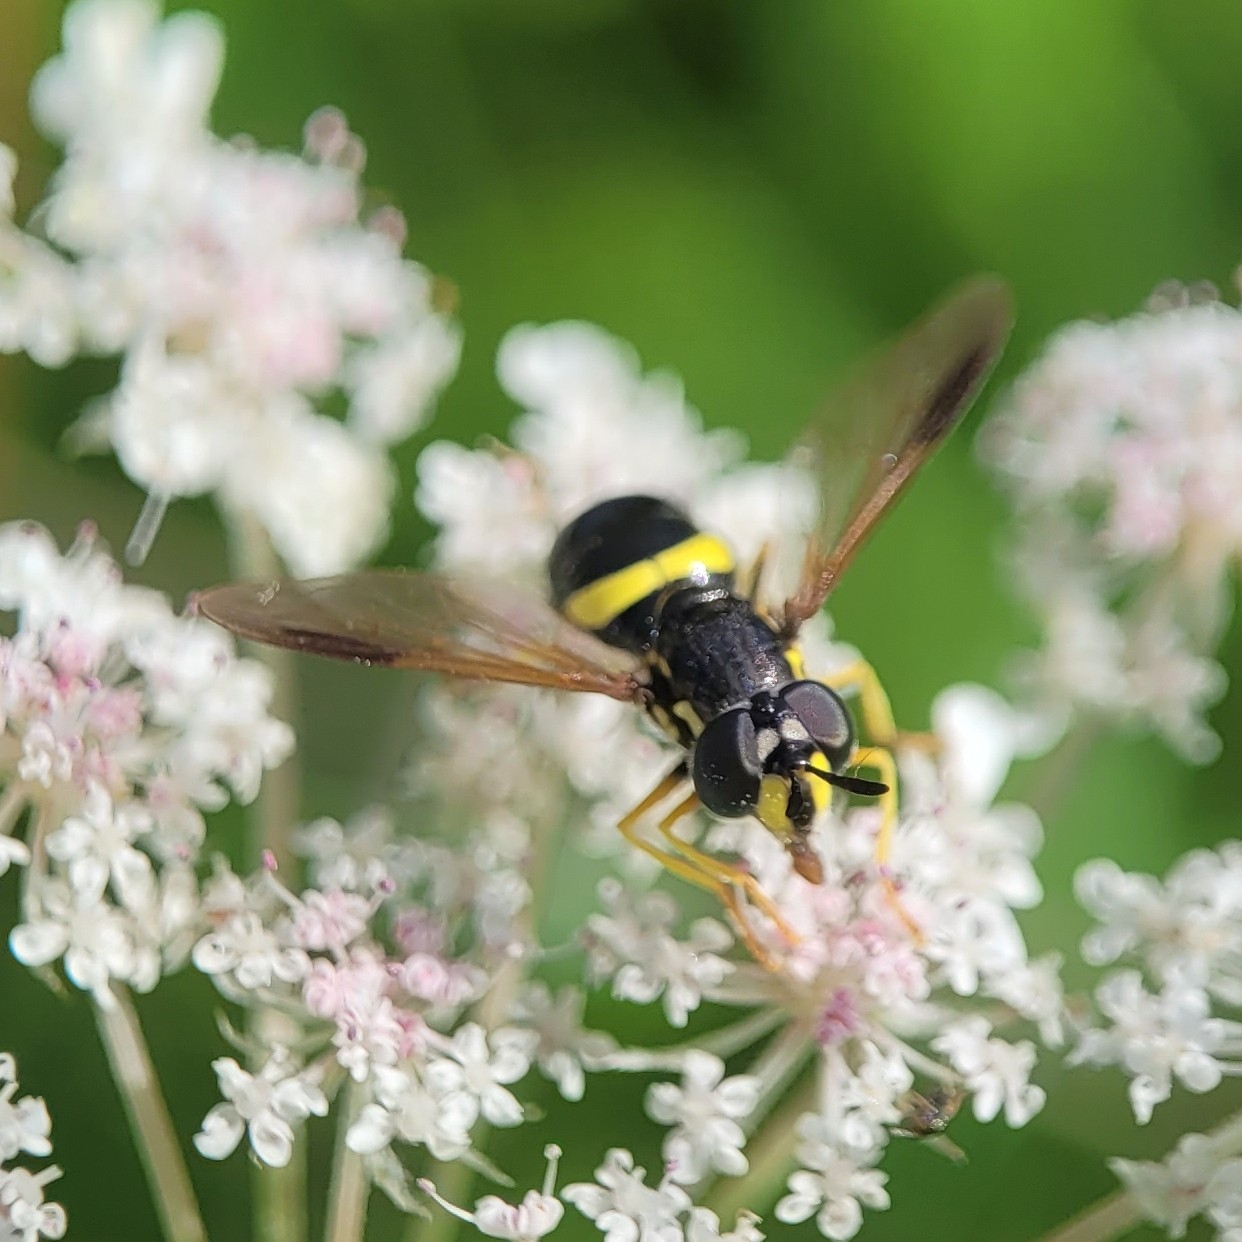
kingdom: Animalia
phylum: Arthropoda
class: Insecta
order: Diptera
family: Syrphidae
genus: Chrysotoxum
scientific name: Chrysotoxum bicincta
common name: Tobåndet hvepsesvirreflue
